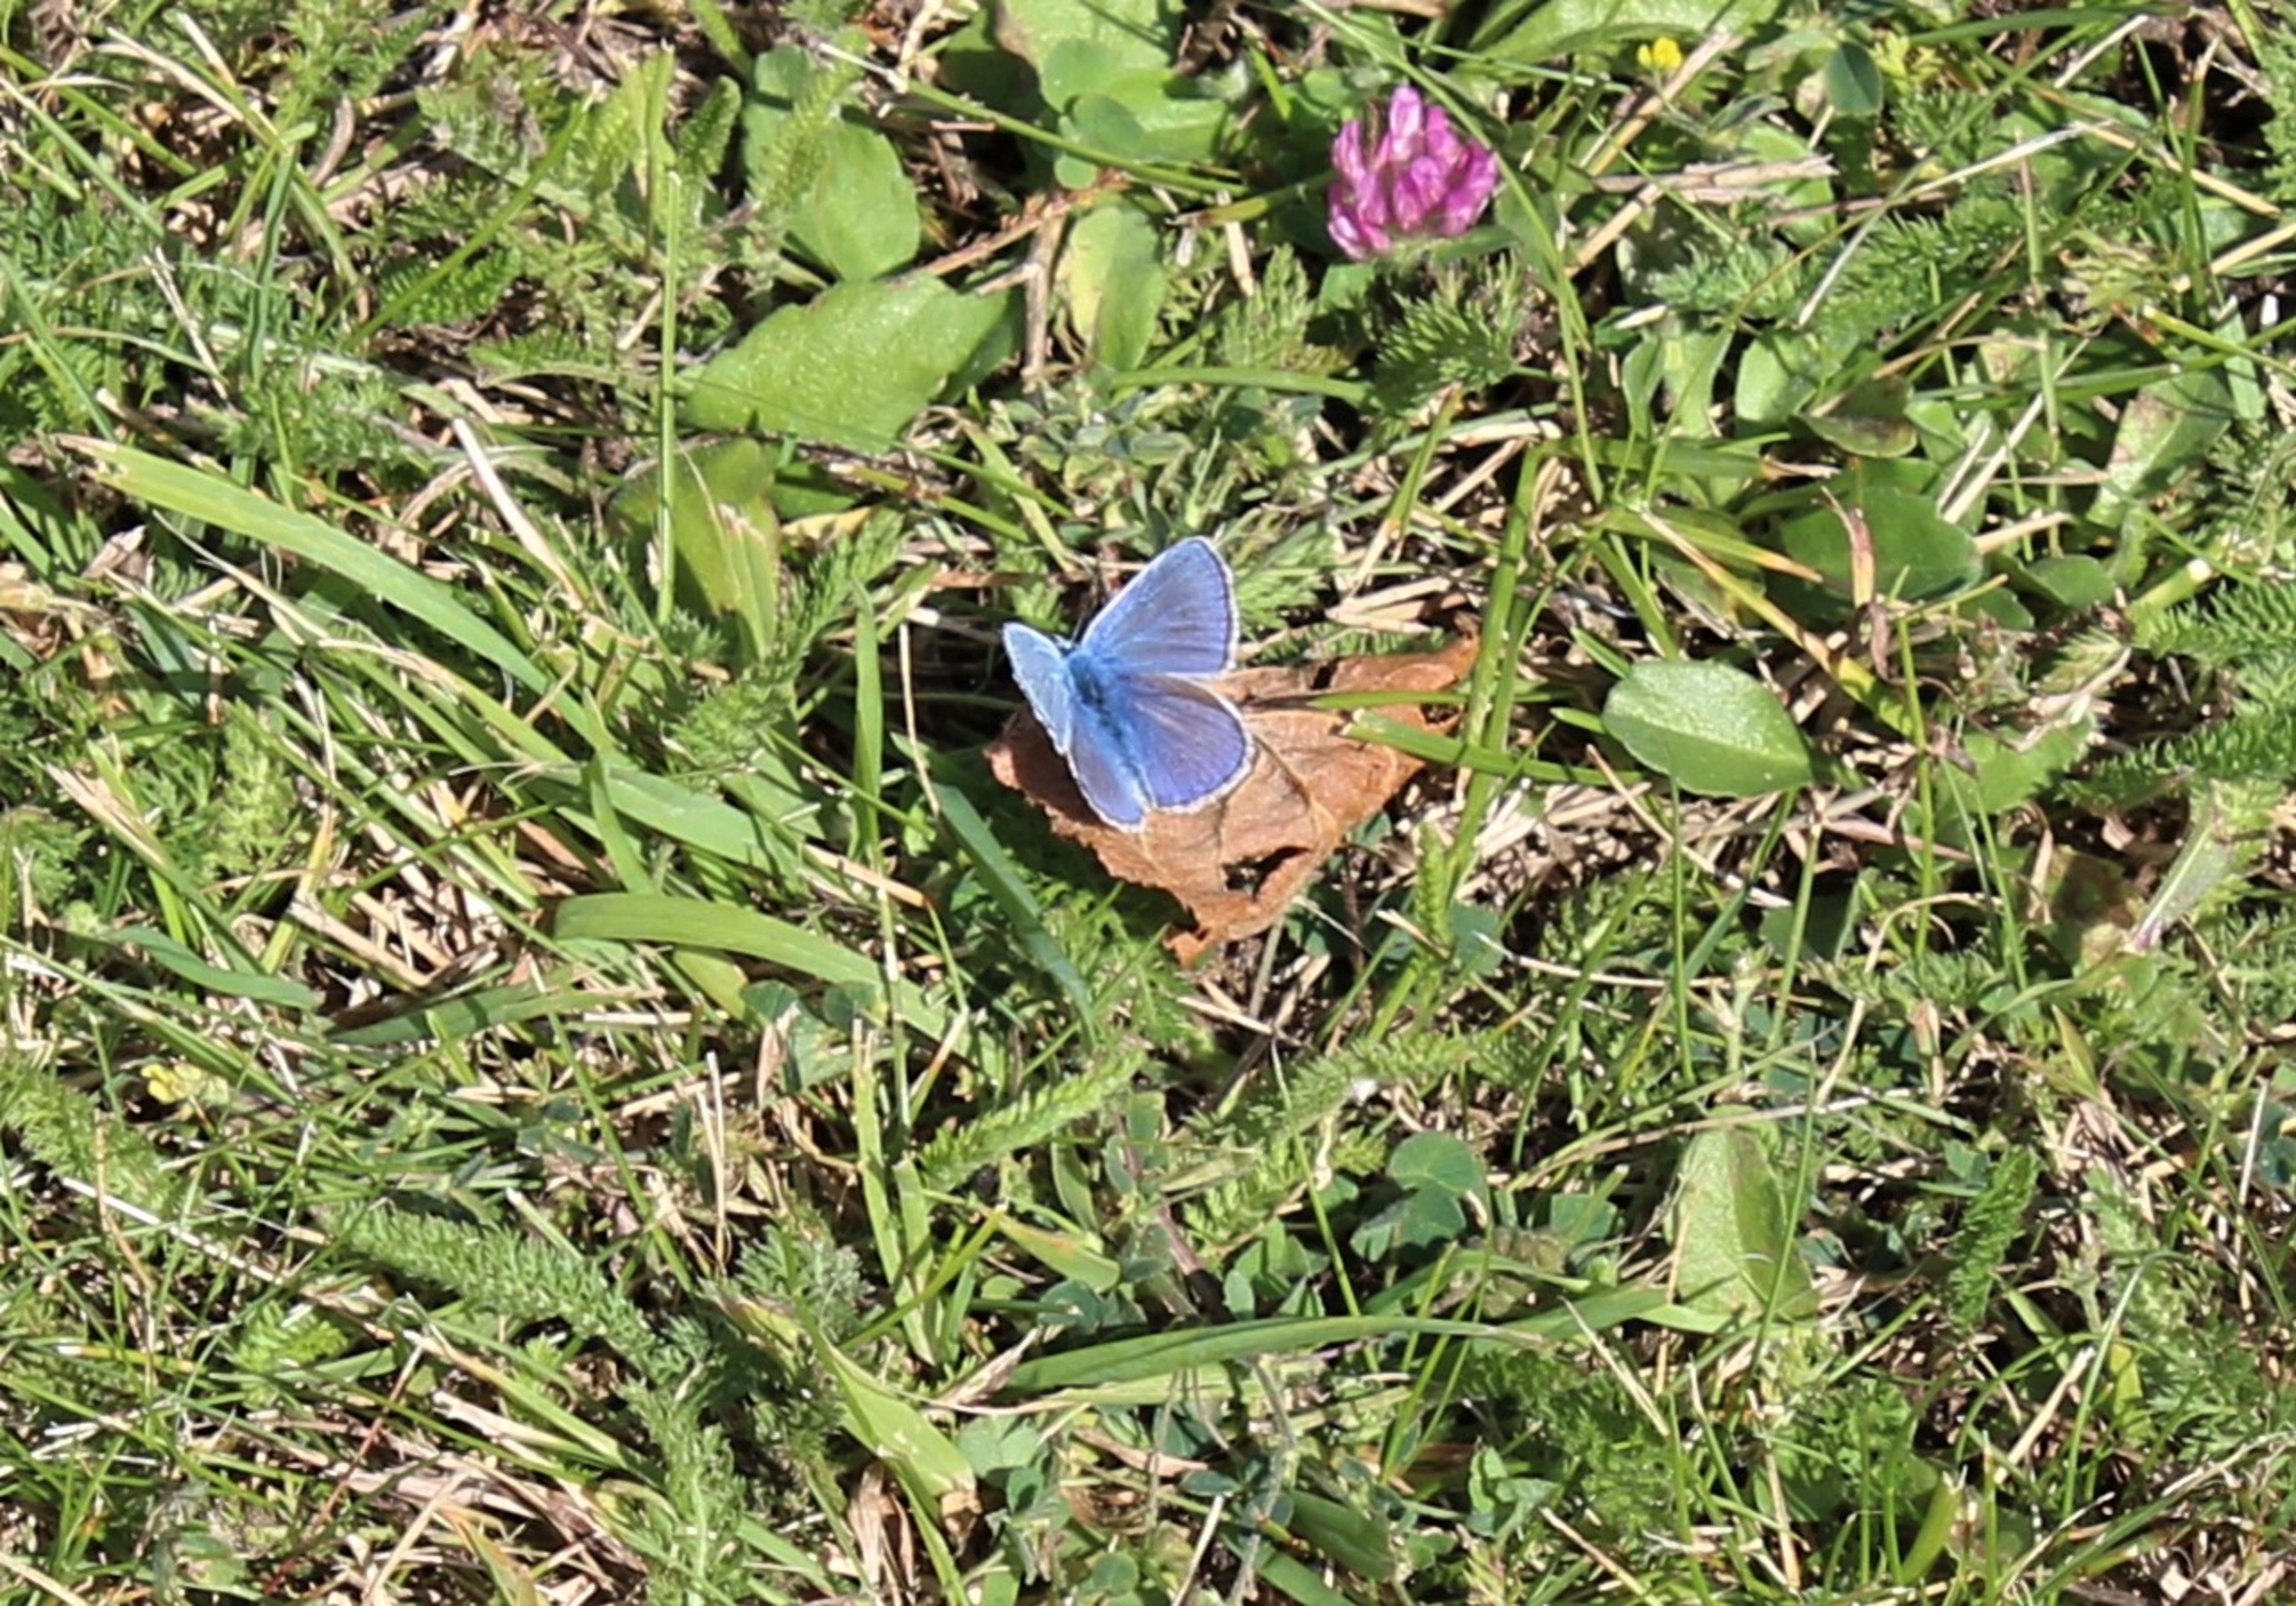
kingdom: Animalia
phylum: Arthropoda
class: Insecta
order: Lepidoptera
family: Lycaenidae
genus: Polyommatus
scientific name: Polyommatus icarus
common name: Almindelig blåfugl
